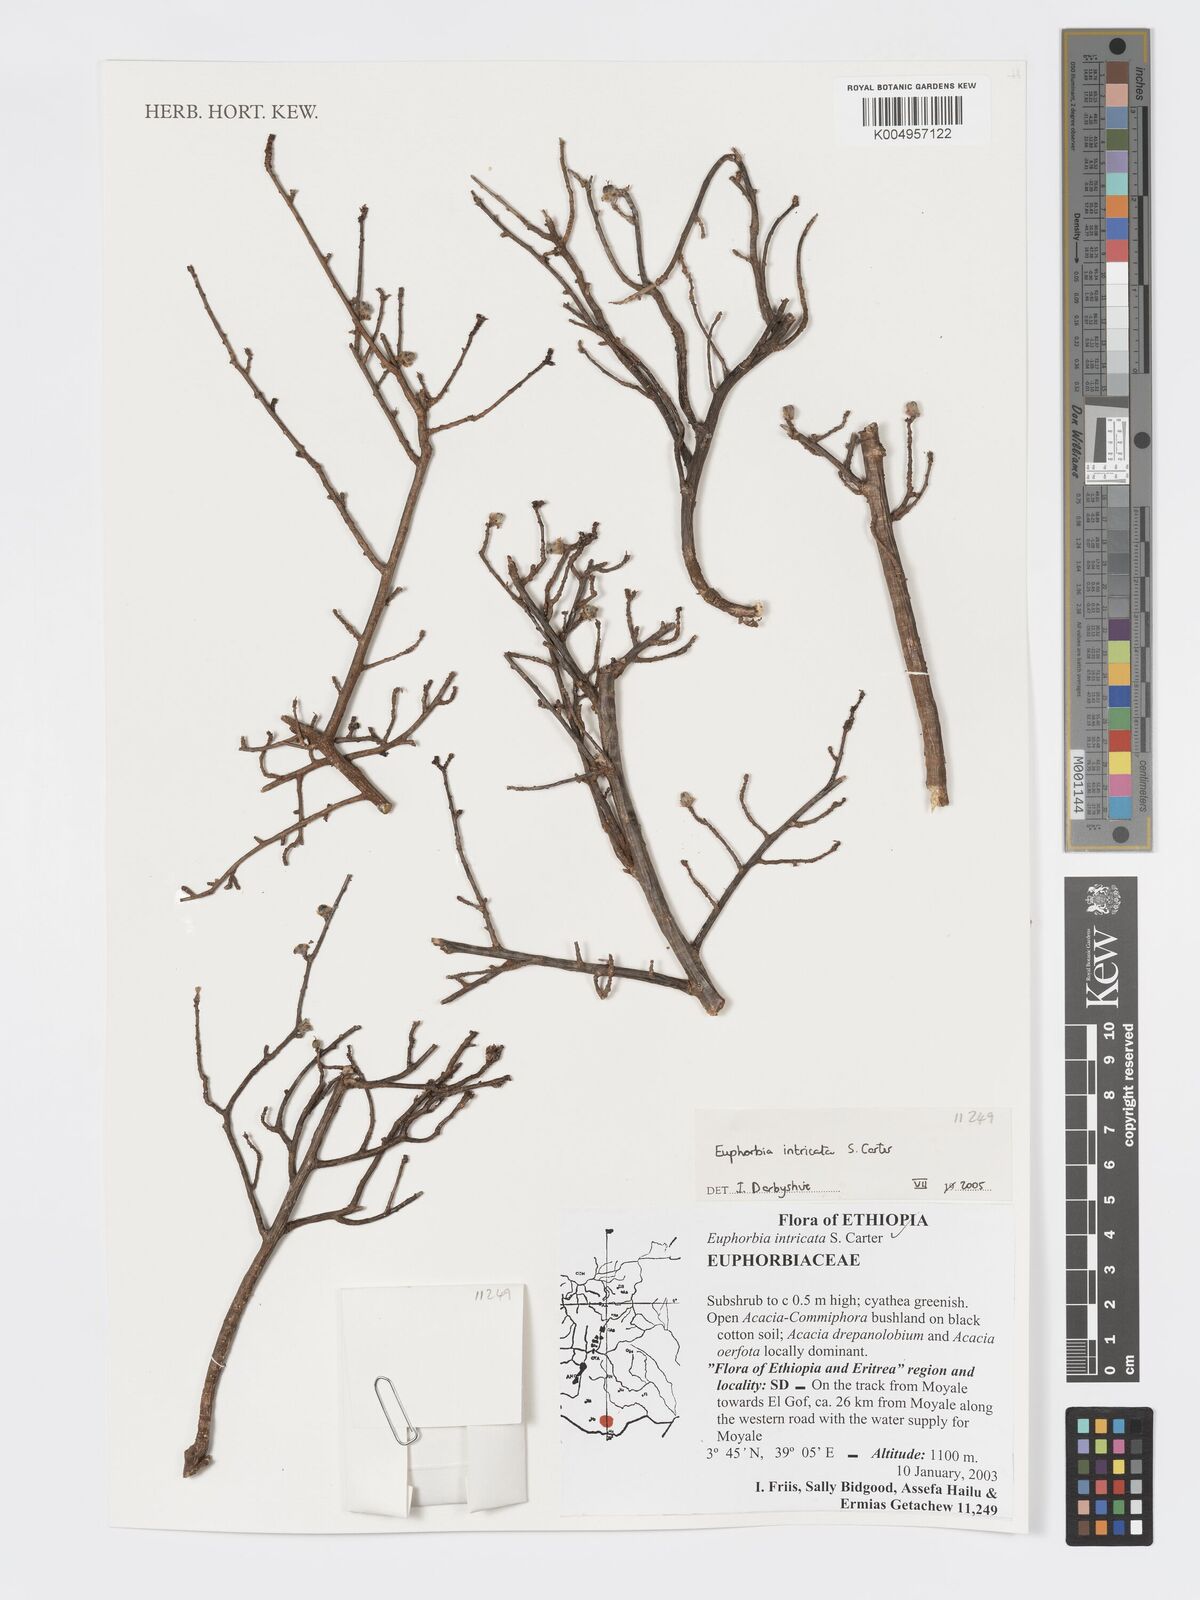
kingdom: Plantae
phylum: Tracheophyta
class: Magnoliopsida
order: Malpighiales
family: Euphorbiaceae
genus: Euphorbia
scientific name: Euphorbia intricata
